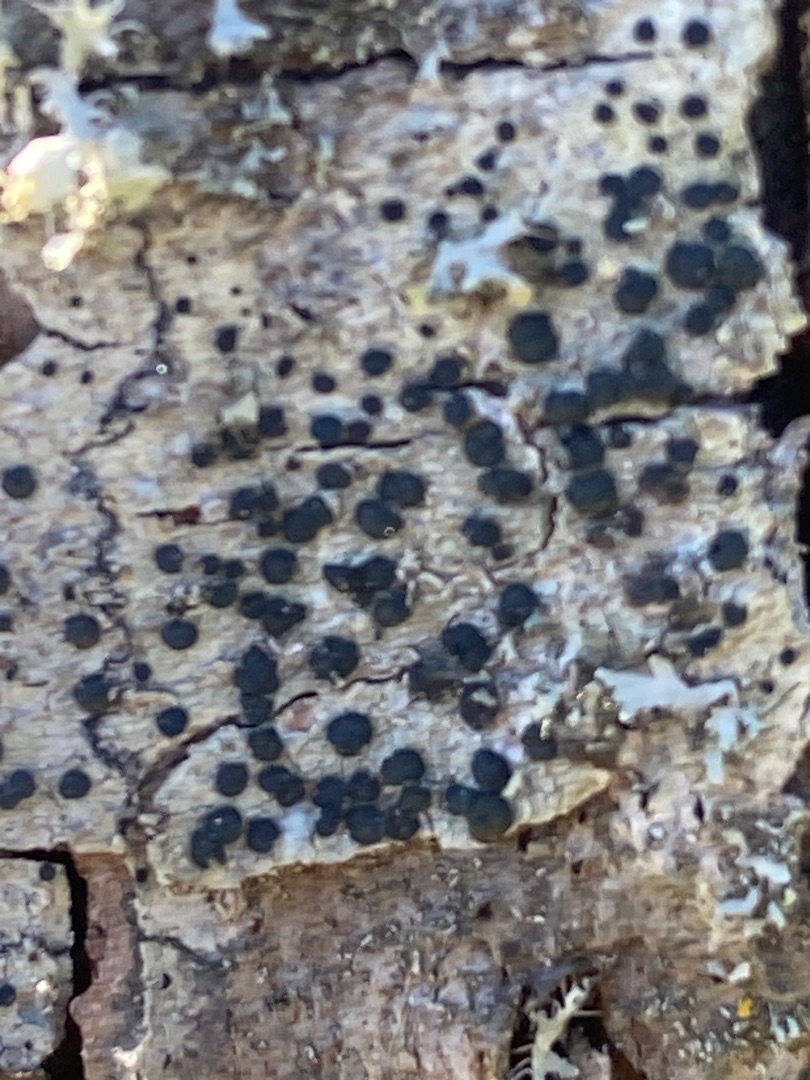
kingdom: Fungi
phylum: Ascomycota
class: Lecanoromycetes
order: Lecanorales
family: Lecanoraceae
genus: Lecidella
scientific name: Lecidella elaeochroma
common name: Grågrøn skivelav
